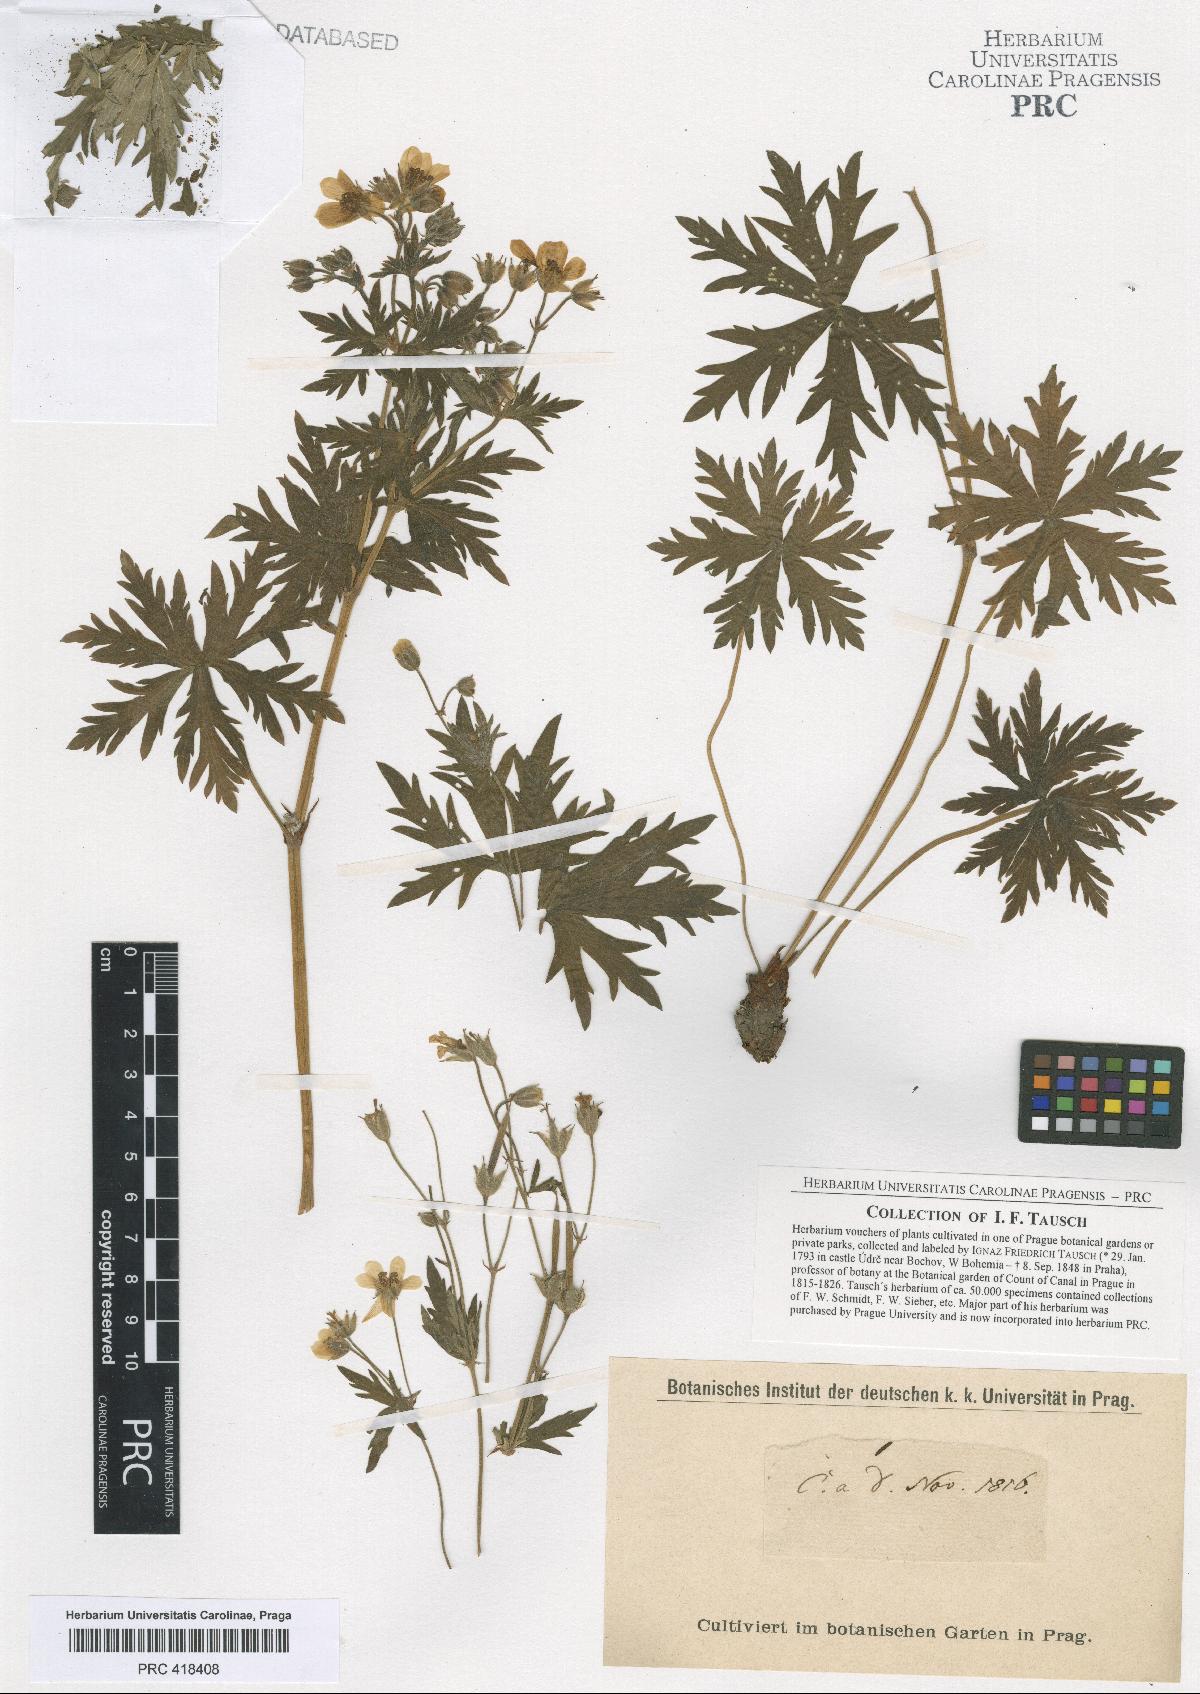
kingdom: Plantae
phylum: Tracheophyta
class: Magnoliopsida
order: Geraniales
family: Geraniaceae
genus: Geranium
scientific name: Geranium rivulare
